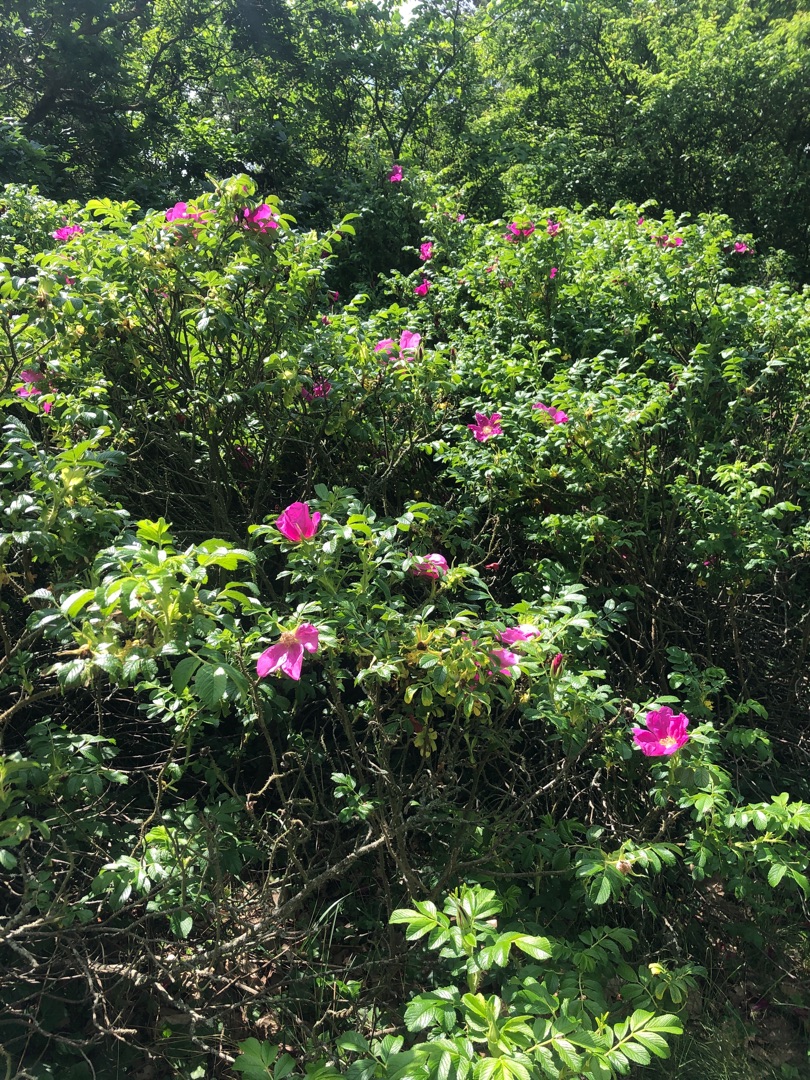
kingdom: Plantae
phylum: Tracheophyta
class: Magnoliopsida
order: Rosales
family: Rosaceae
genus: Rosa
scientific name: Rosa rugosa
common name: Rynket rose
